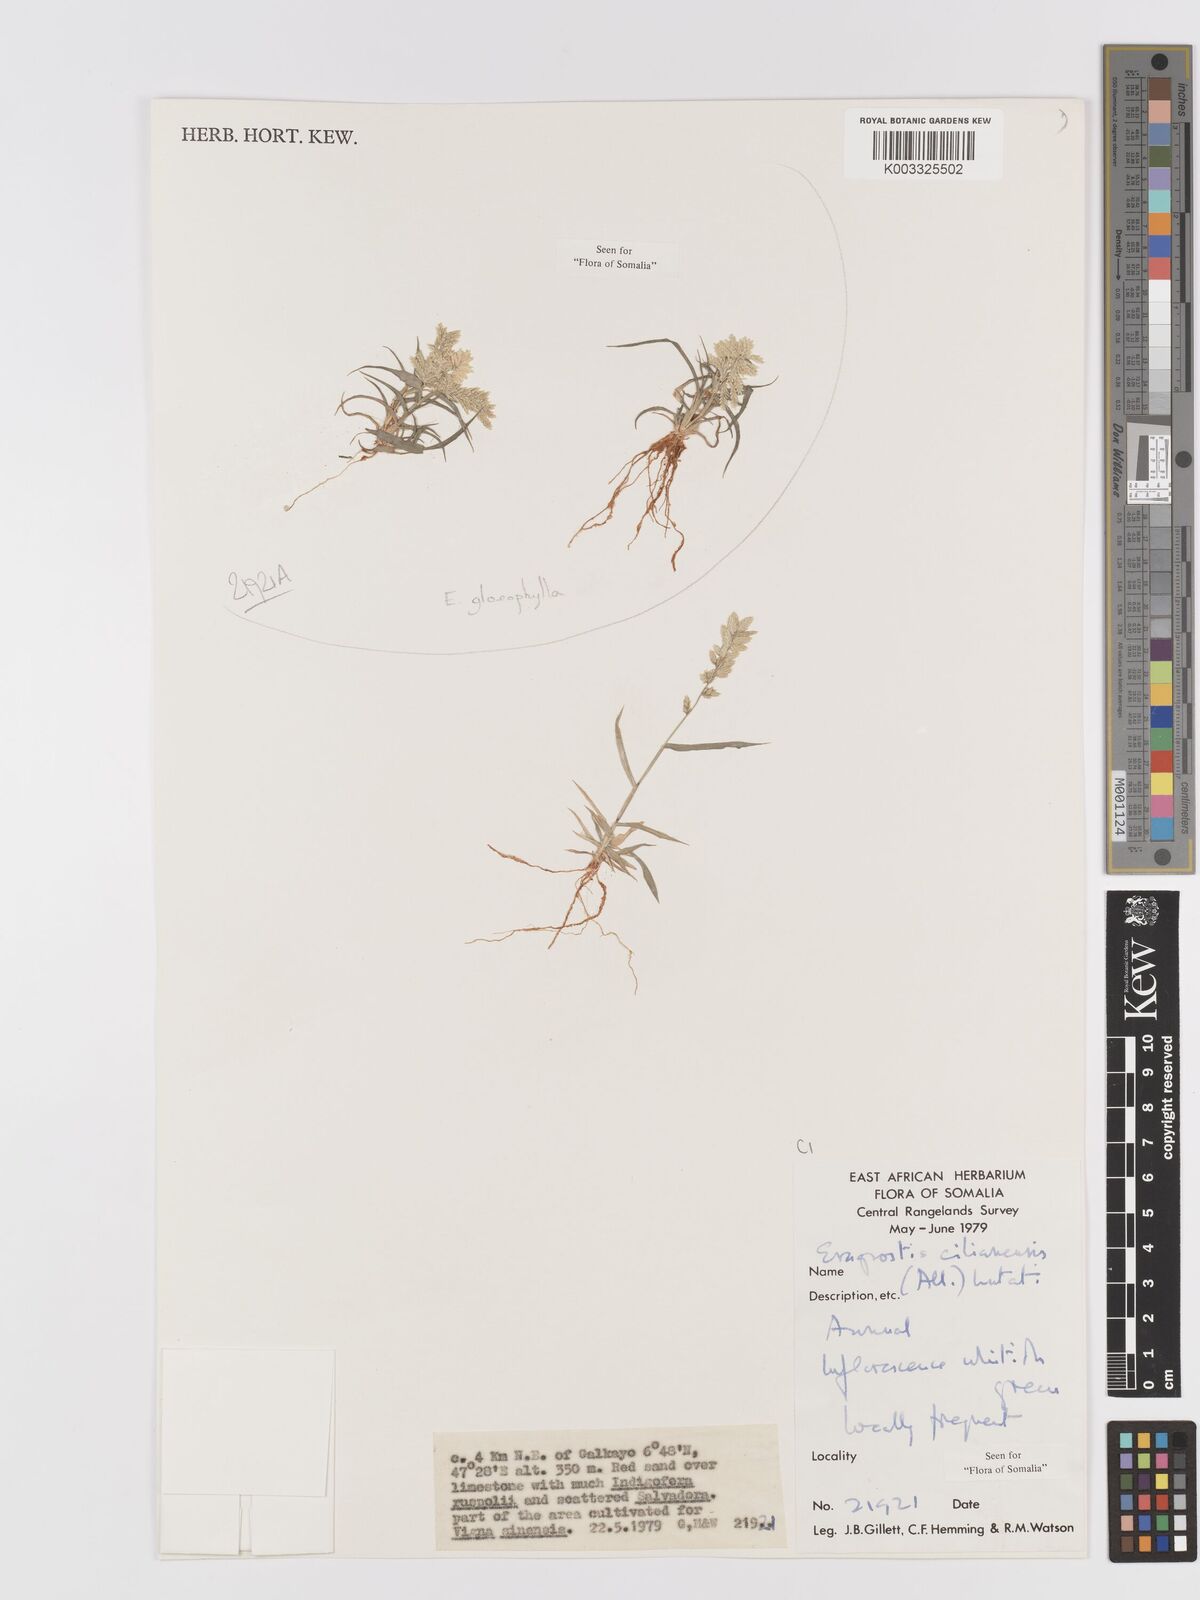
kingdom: Plantae
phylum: Tracheophyta
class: Liliopsida
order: Poales
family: Poaceae
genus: Eragrostis
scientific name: Eragrostis gloeophylla
